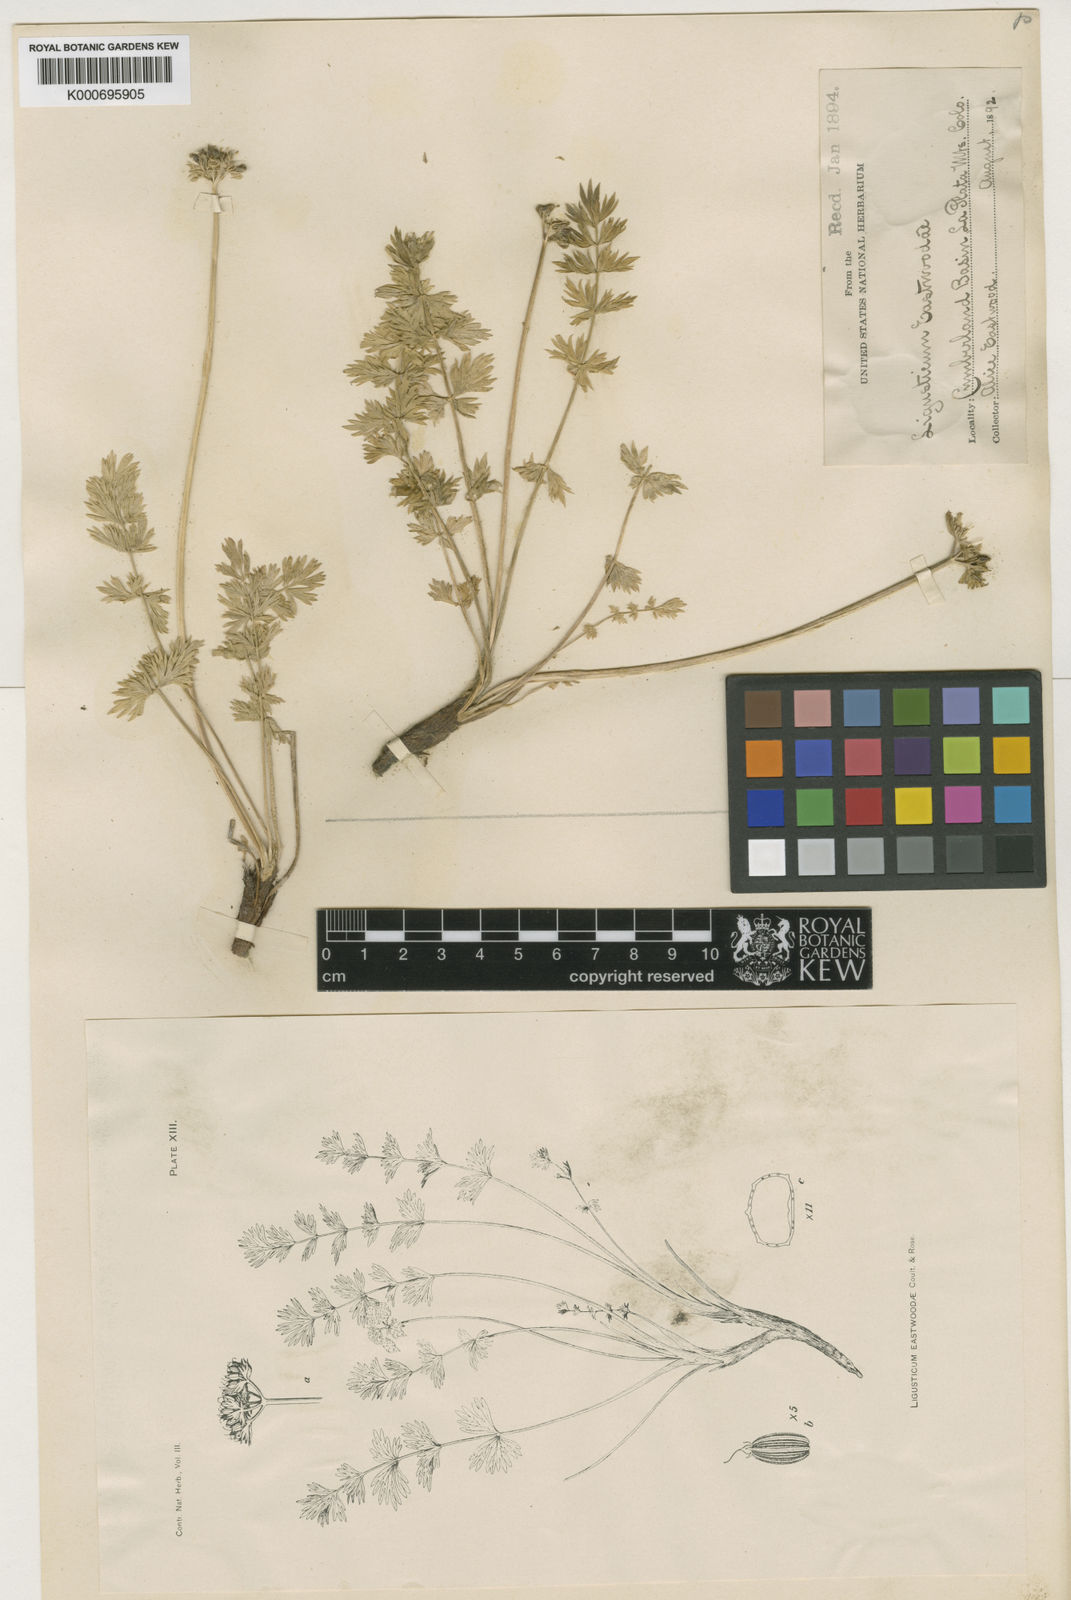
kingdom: Plantae
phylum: Tracheophyta
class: Magnoliopsida
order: Apiales
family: Apiaceae
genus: Podistera
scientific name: Podistera eastwoodiae
